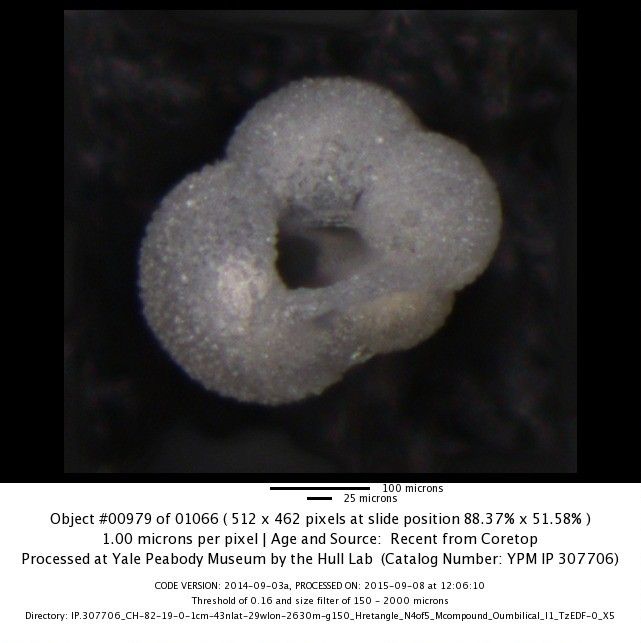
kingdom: Chromista
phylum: Foraminifera
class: Globothalamea
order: Rotaliida
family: Globigerinidae
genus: Globigerina
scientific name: Globigerina bulloides
